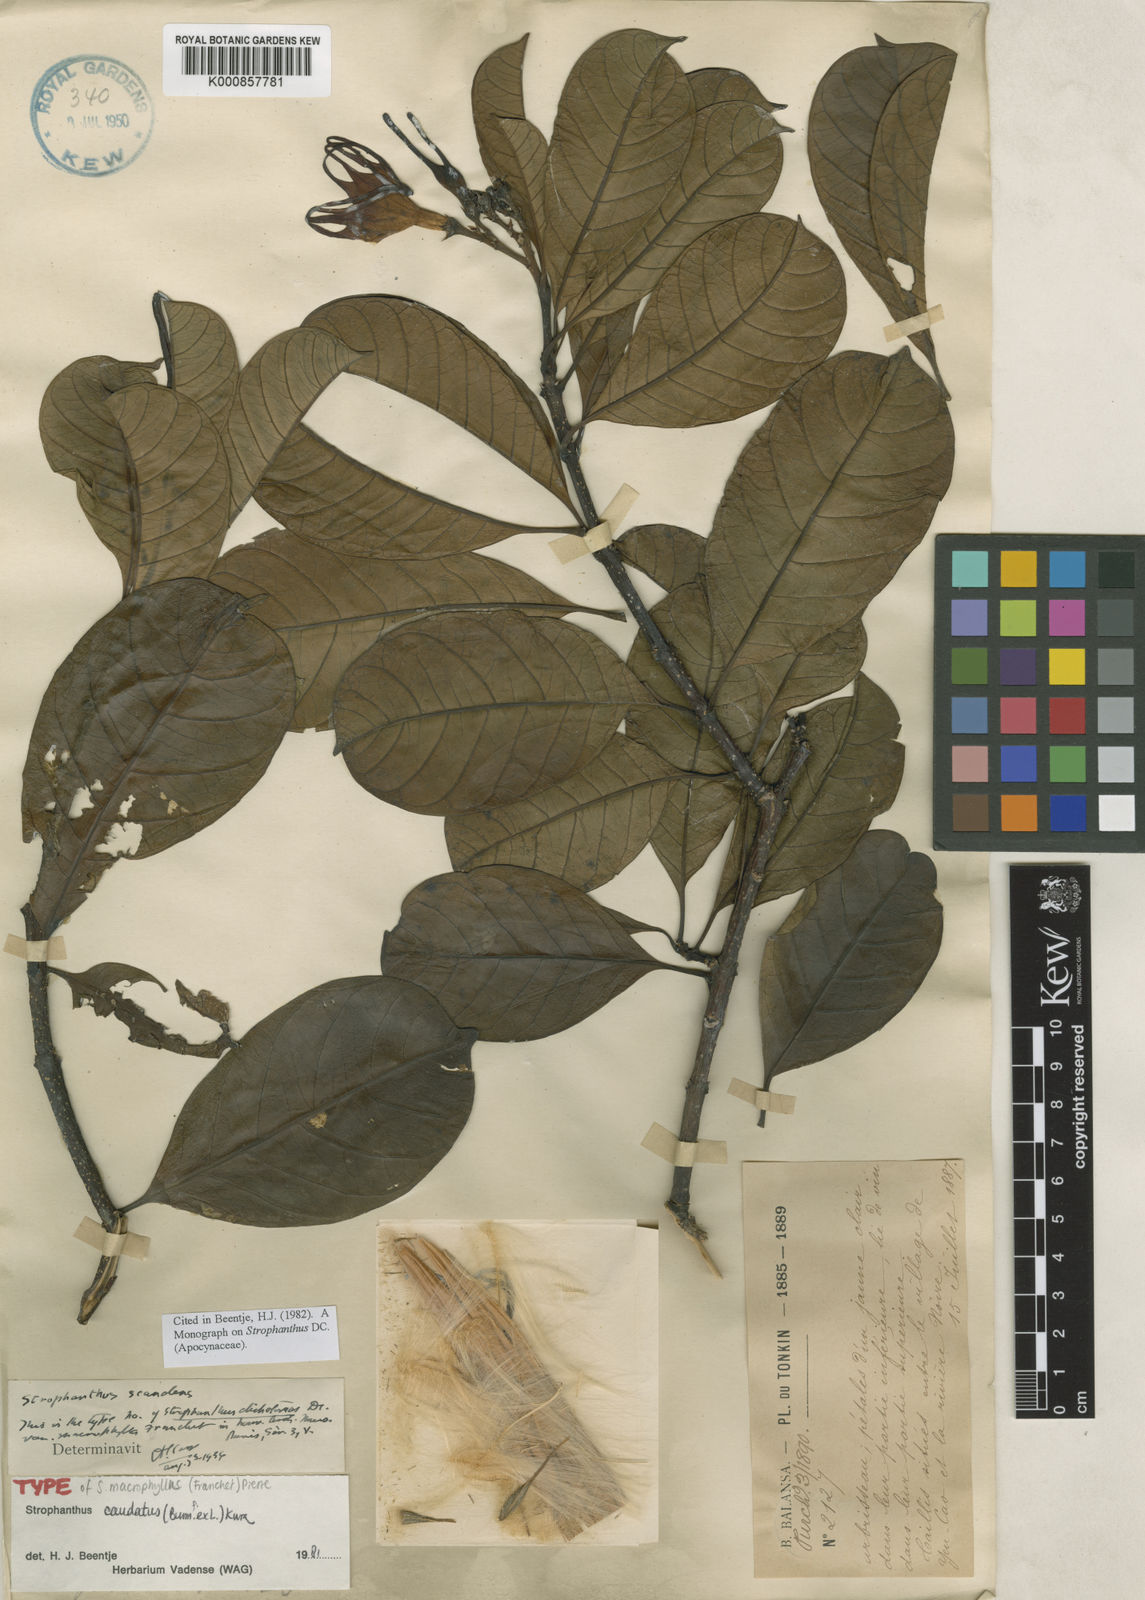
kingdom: Plantae
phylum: Tracheophyta
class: Magnoliopsida
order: Gentianales
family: Apocynaceae
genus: Strophanthus
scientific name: Strophanthus caudatus
